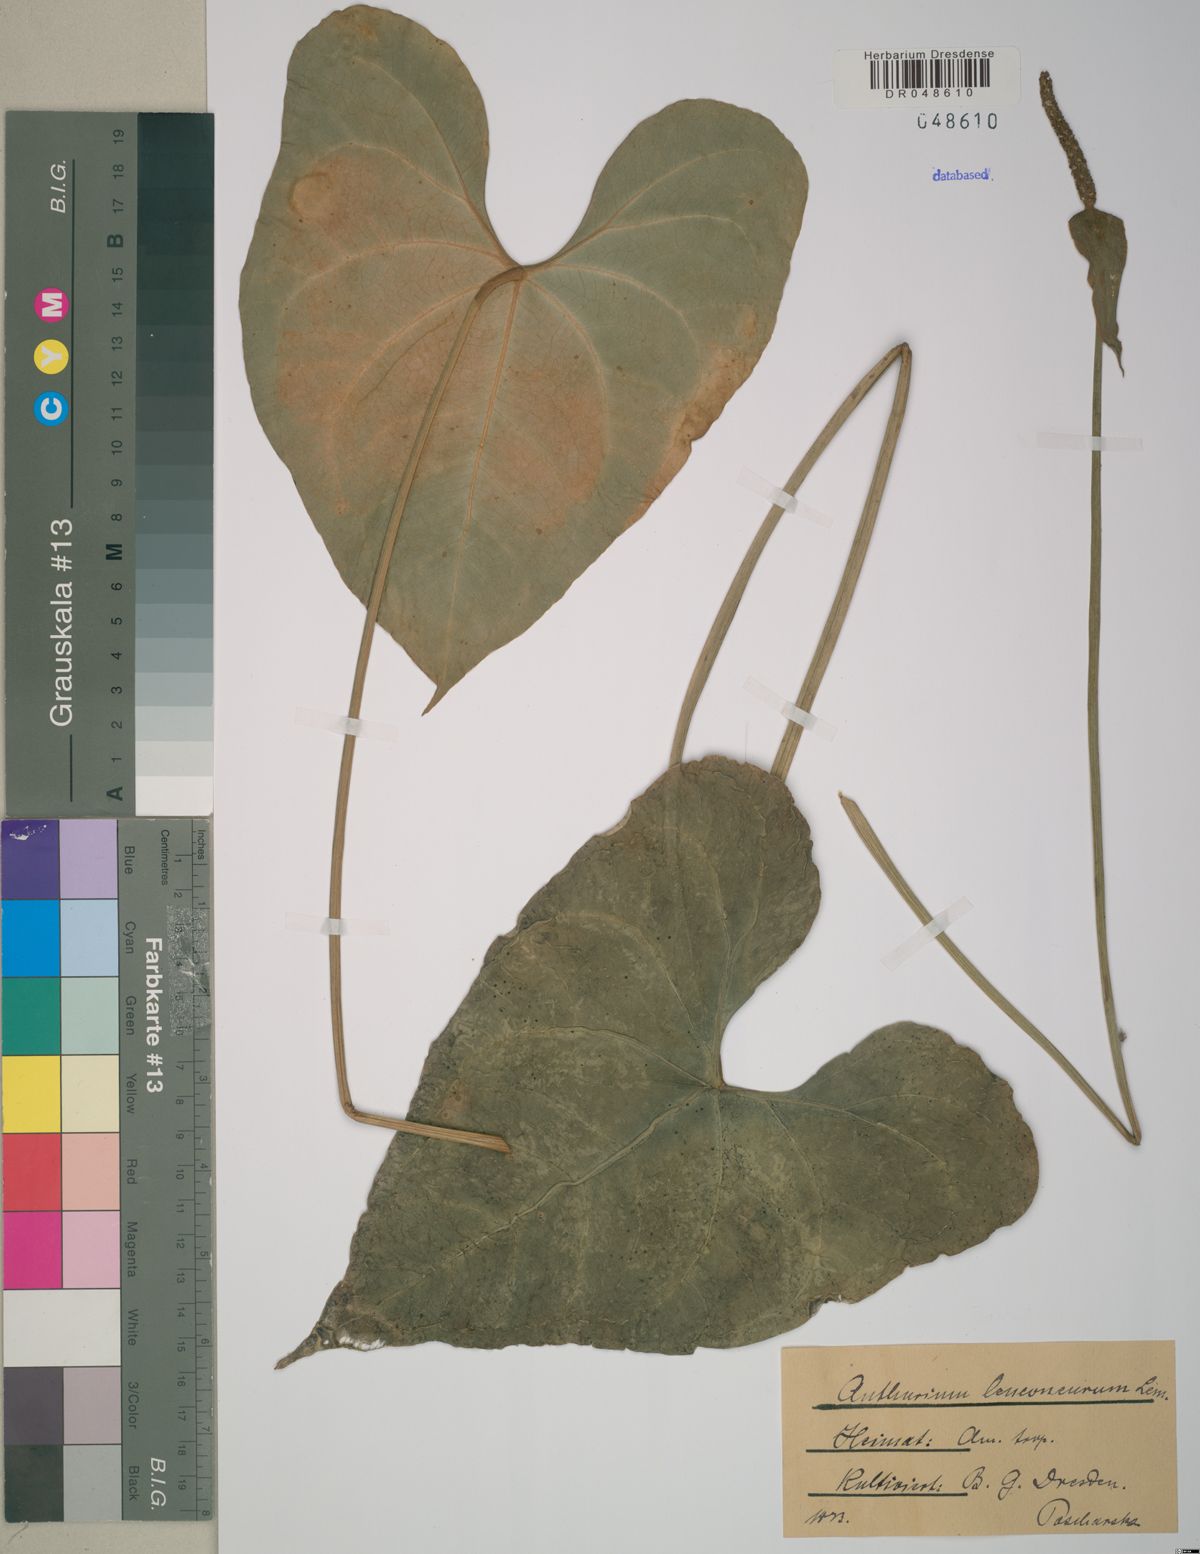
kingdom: Plantae
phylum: Tracheophyta
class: Liliopsida
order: Alismatales
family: Araceae
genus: Anthurium
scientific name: Anthurium leuconeurum
